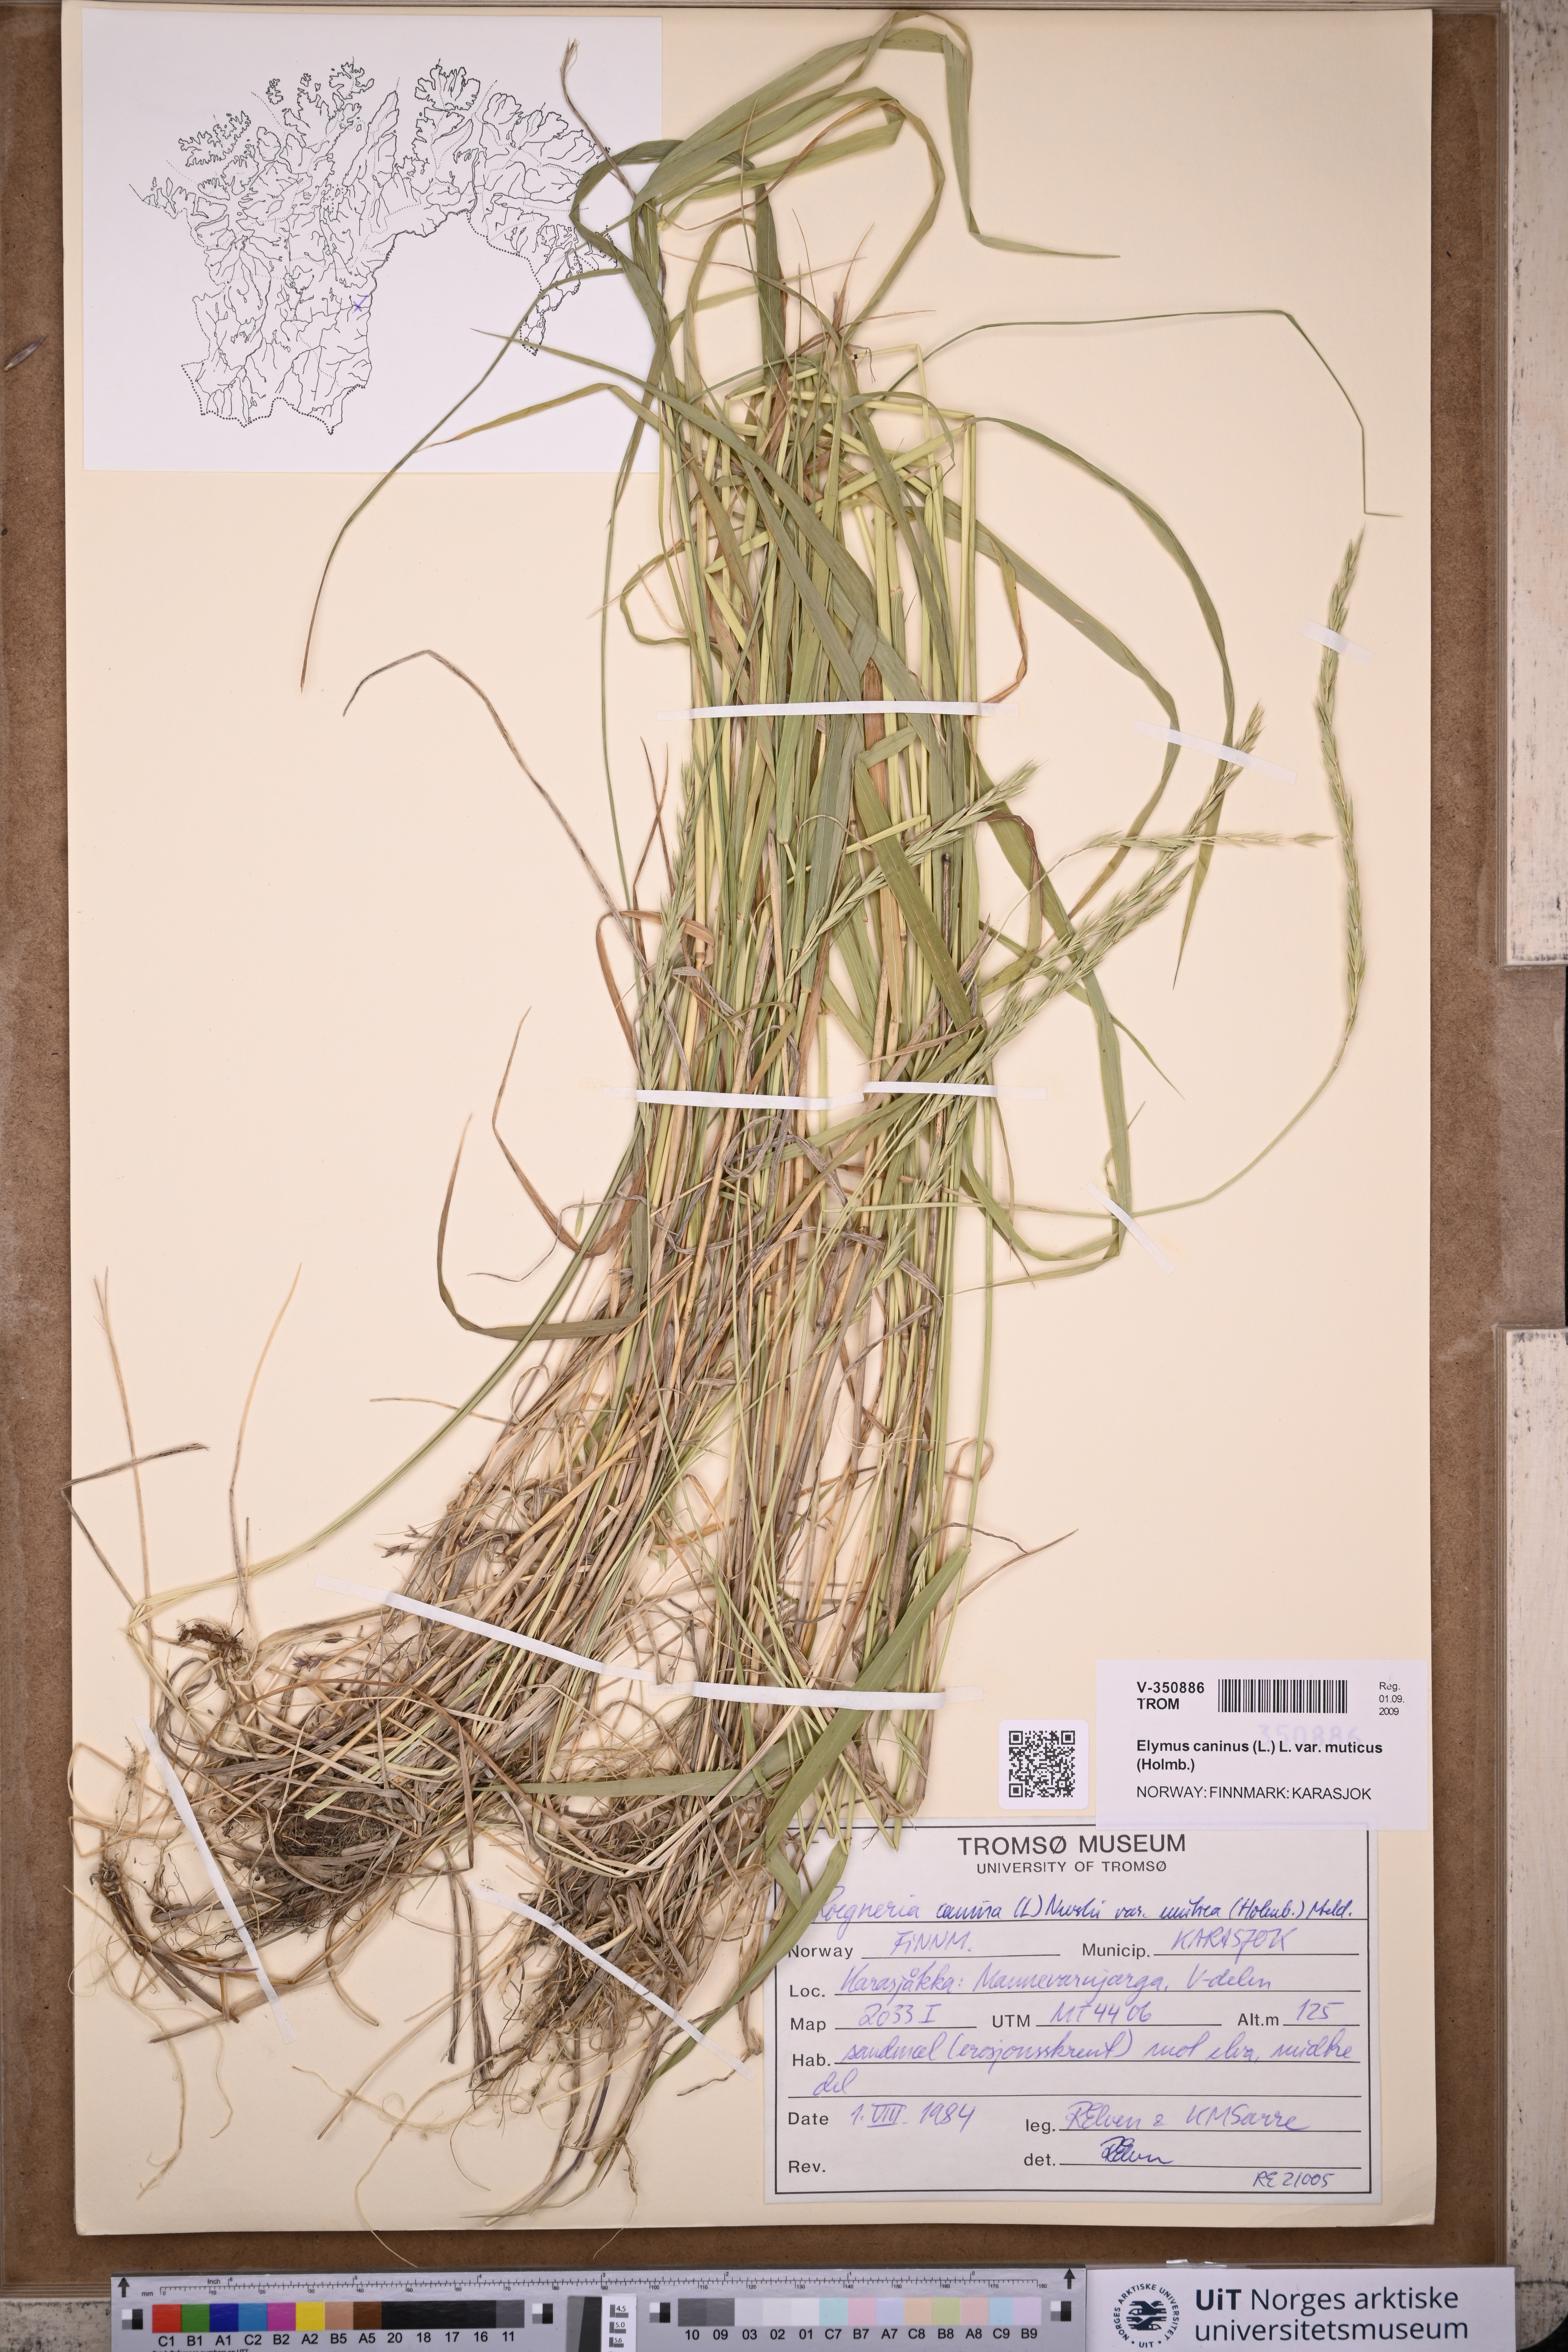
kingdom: Plantae
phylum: Tracheophyta
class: Liliopsida
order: Poales
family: Poaceae
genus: Elymus
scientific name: Elymus caninus
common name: Bearded couch
